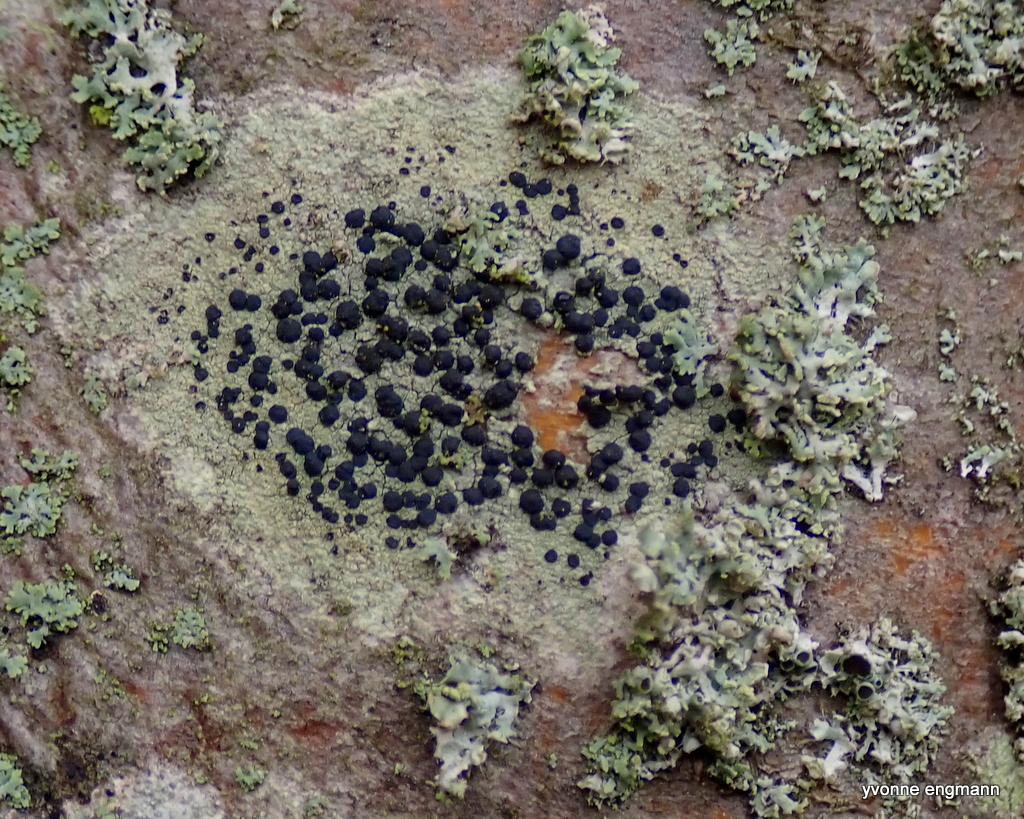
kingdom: Fungi
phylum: Ascomycota
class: Lecanoromycetes
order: Lecanorales
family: Lecanoraceae
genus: Lecidella
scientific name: Lecidella elaeochroma
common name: grågrøn skivelav
